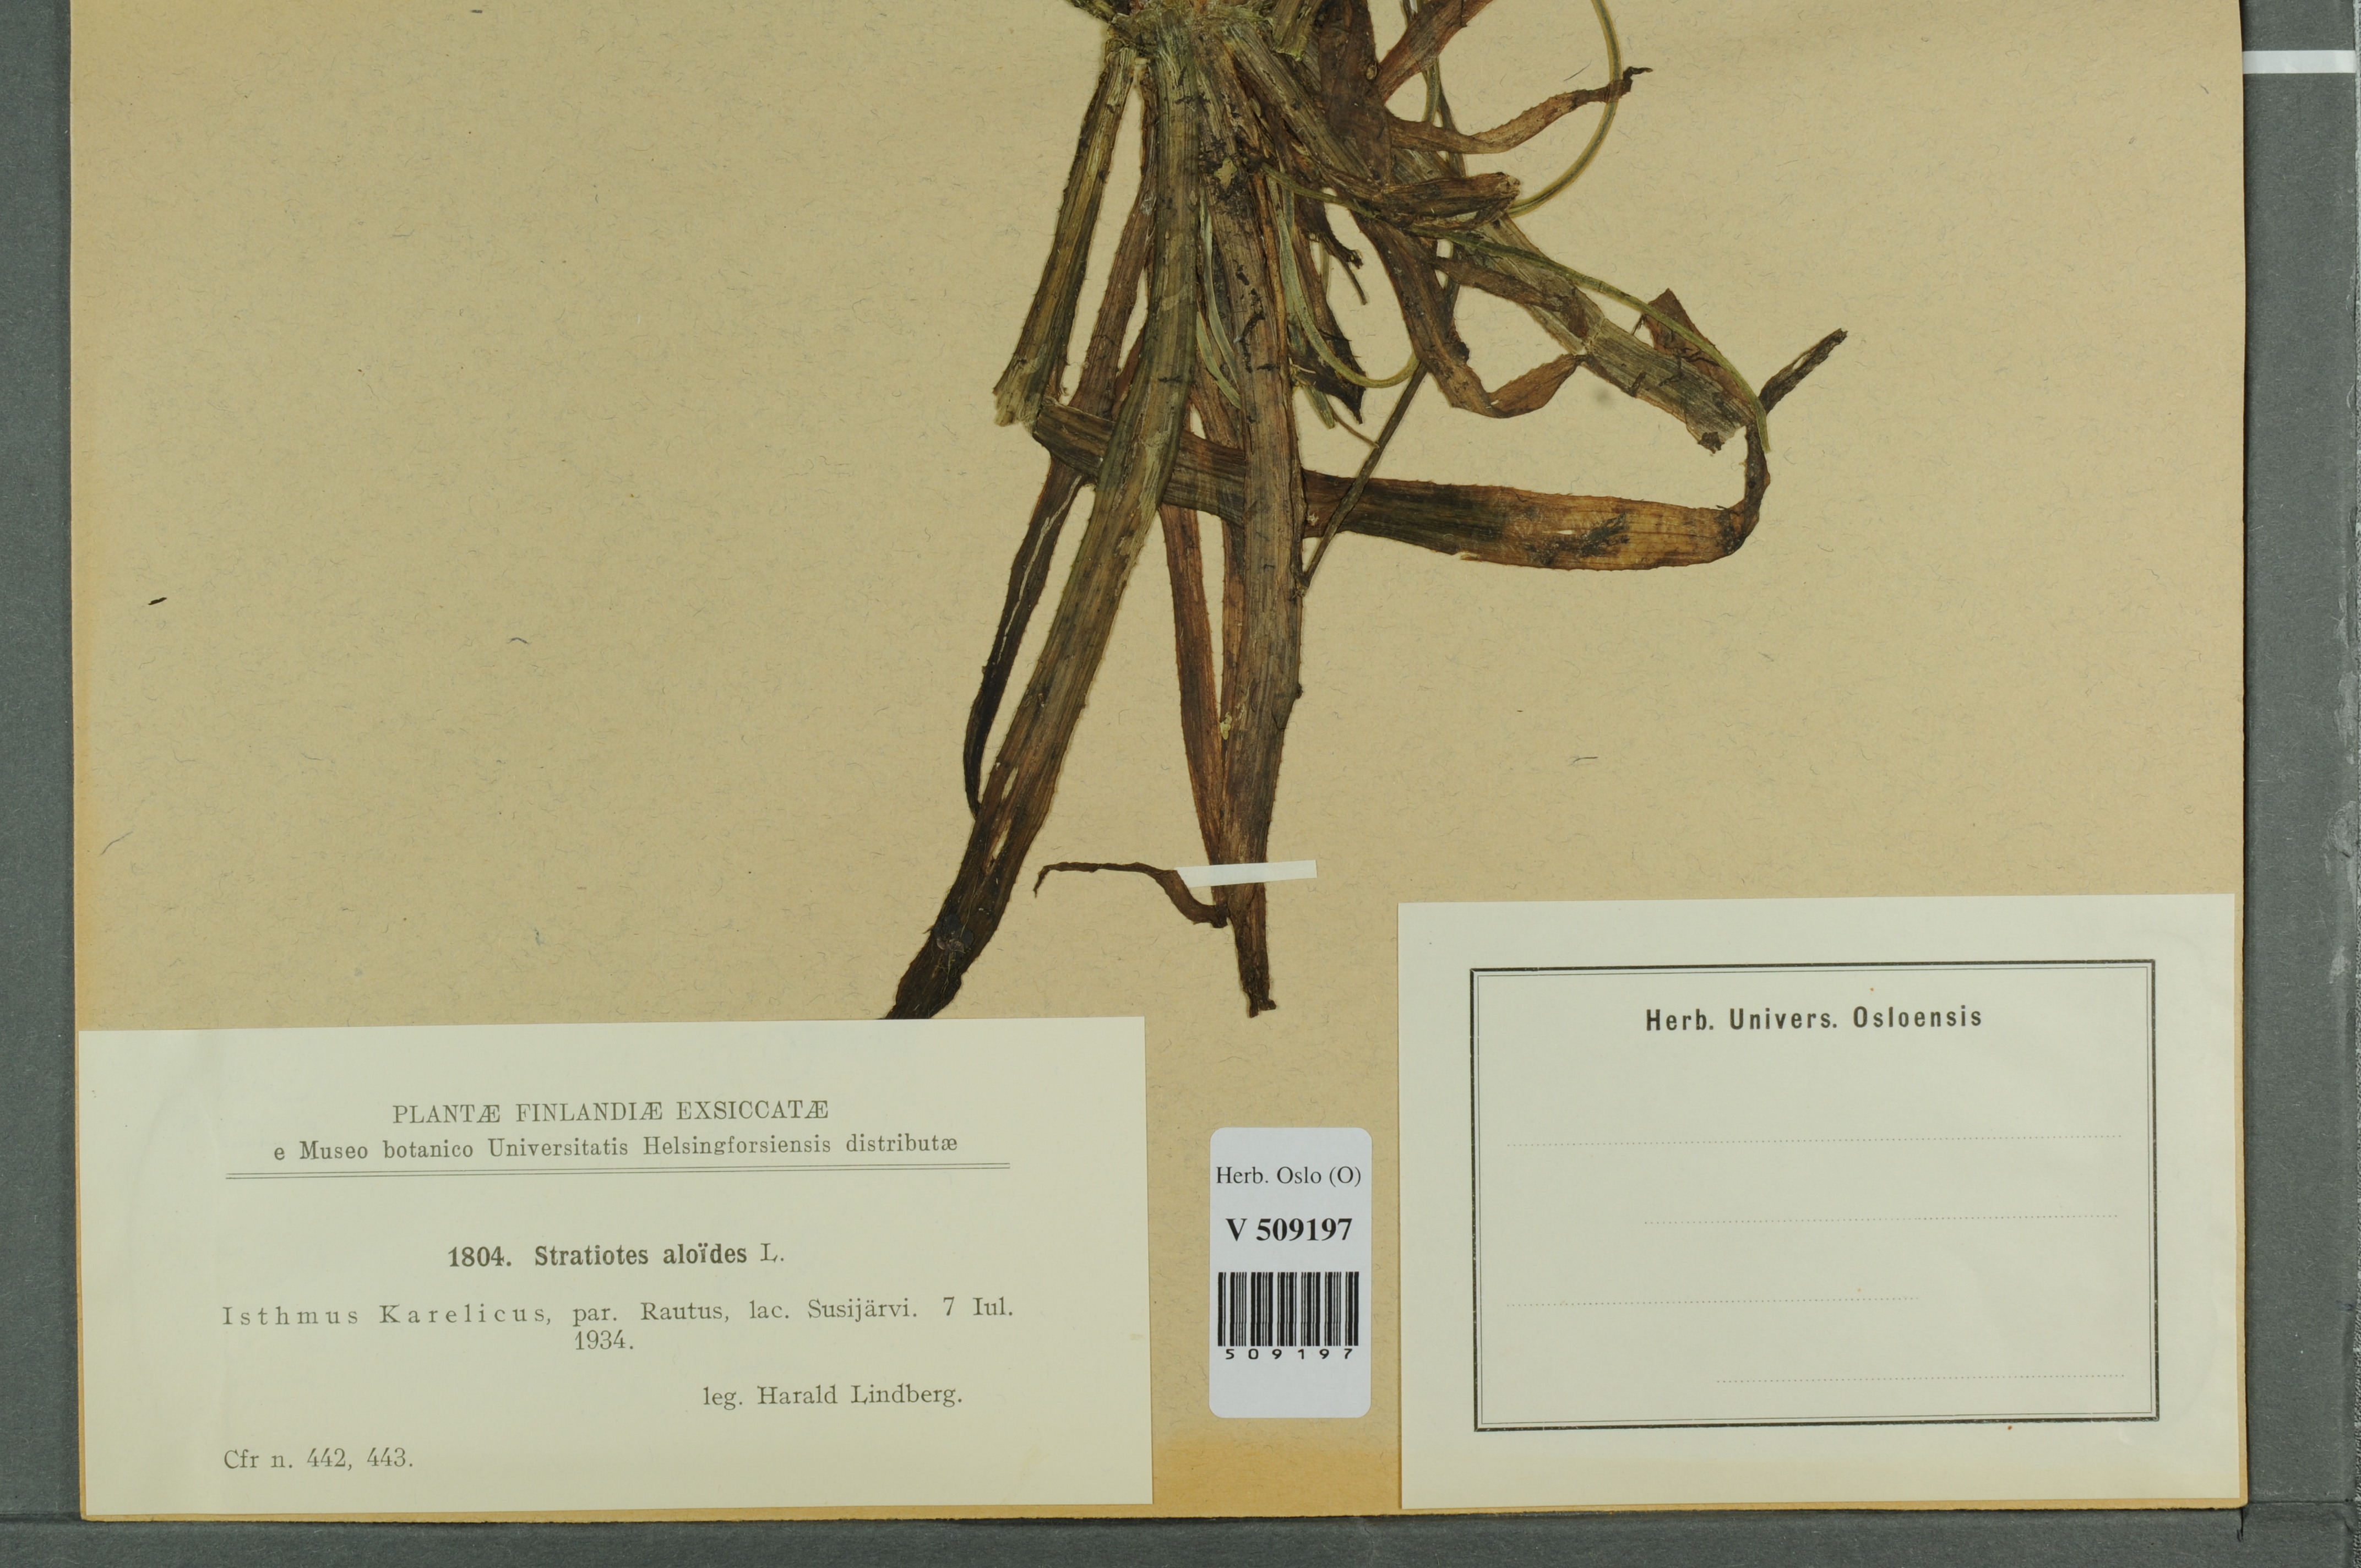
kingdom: Plantae
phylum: Tracheophyta
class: Liliopsida
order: Alismatales
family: Hydrocharitaceae
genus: Stratiotes
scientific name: Stratiotes aloides
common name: Water-soldier
